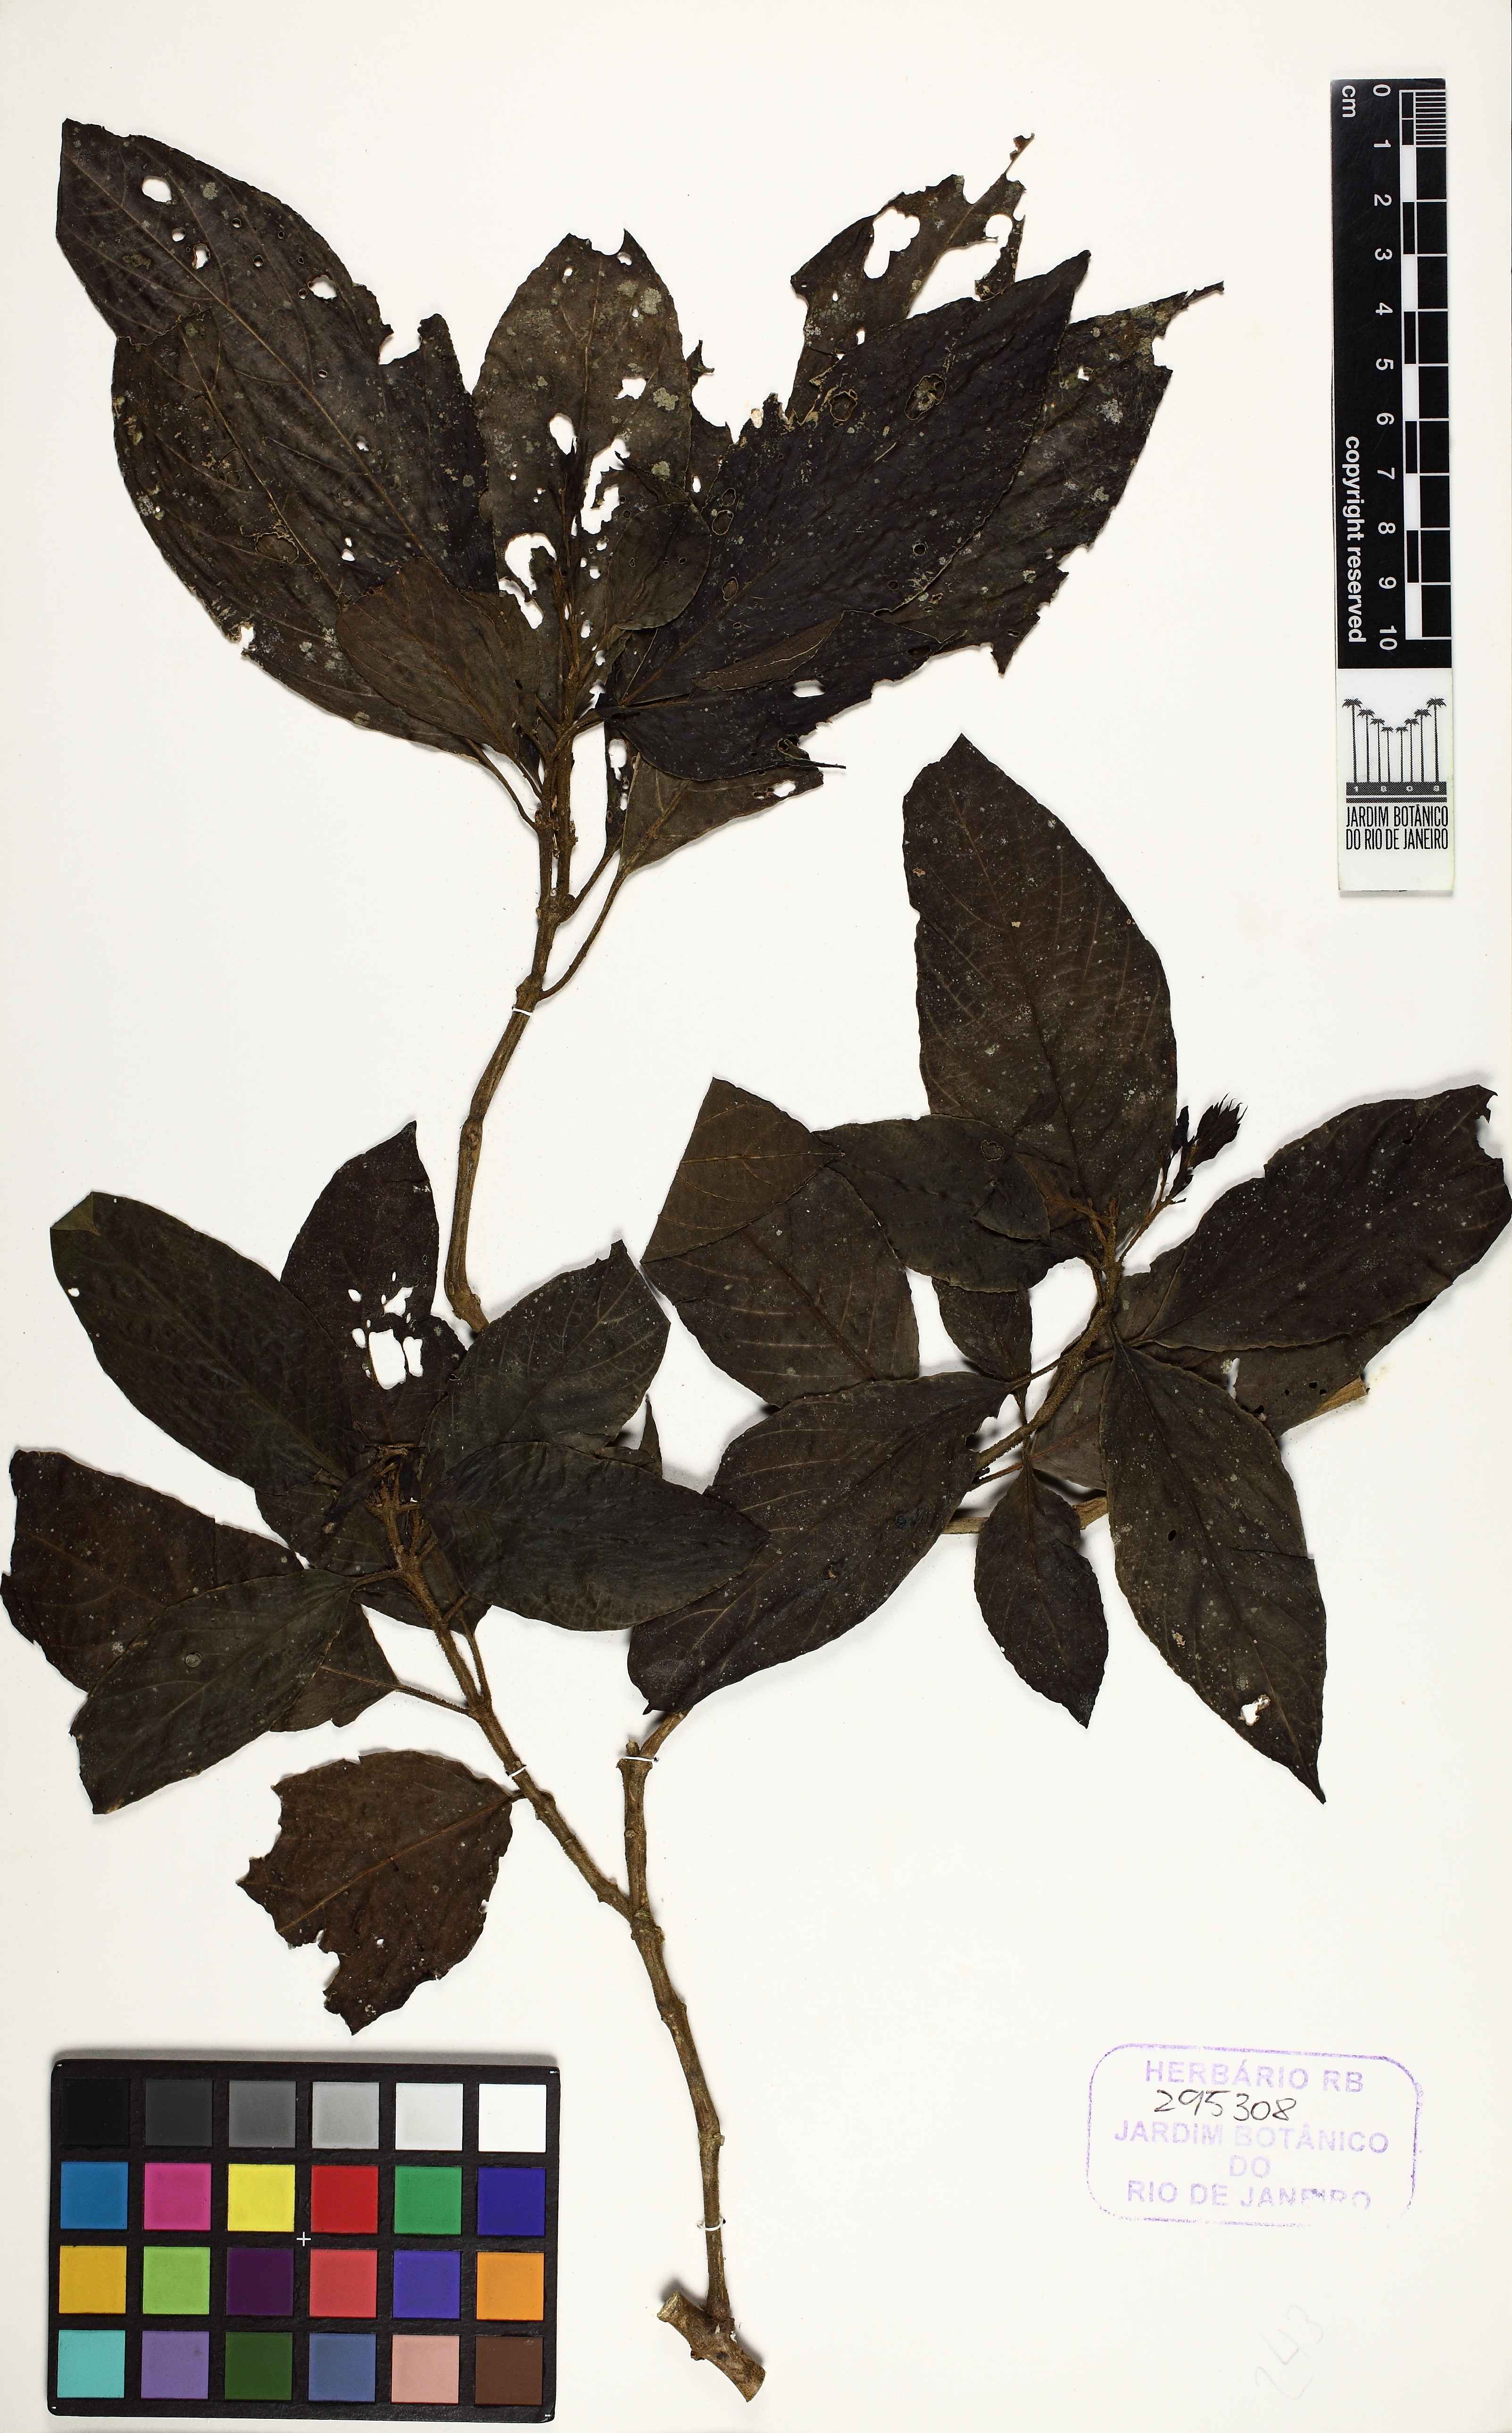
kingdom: Plantae
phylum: Tracheophyta
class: Magnoliopsida
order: Lamiales
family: Acanthaceae
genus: Justicia
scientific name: Justicia nervata
